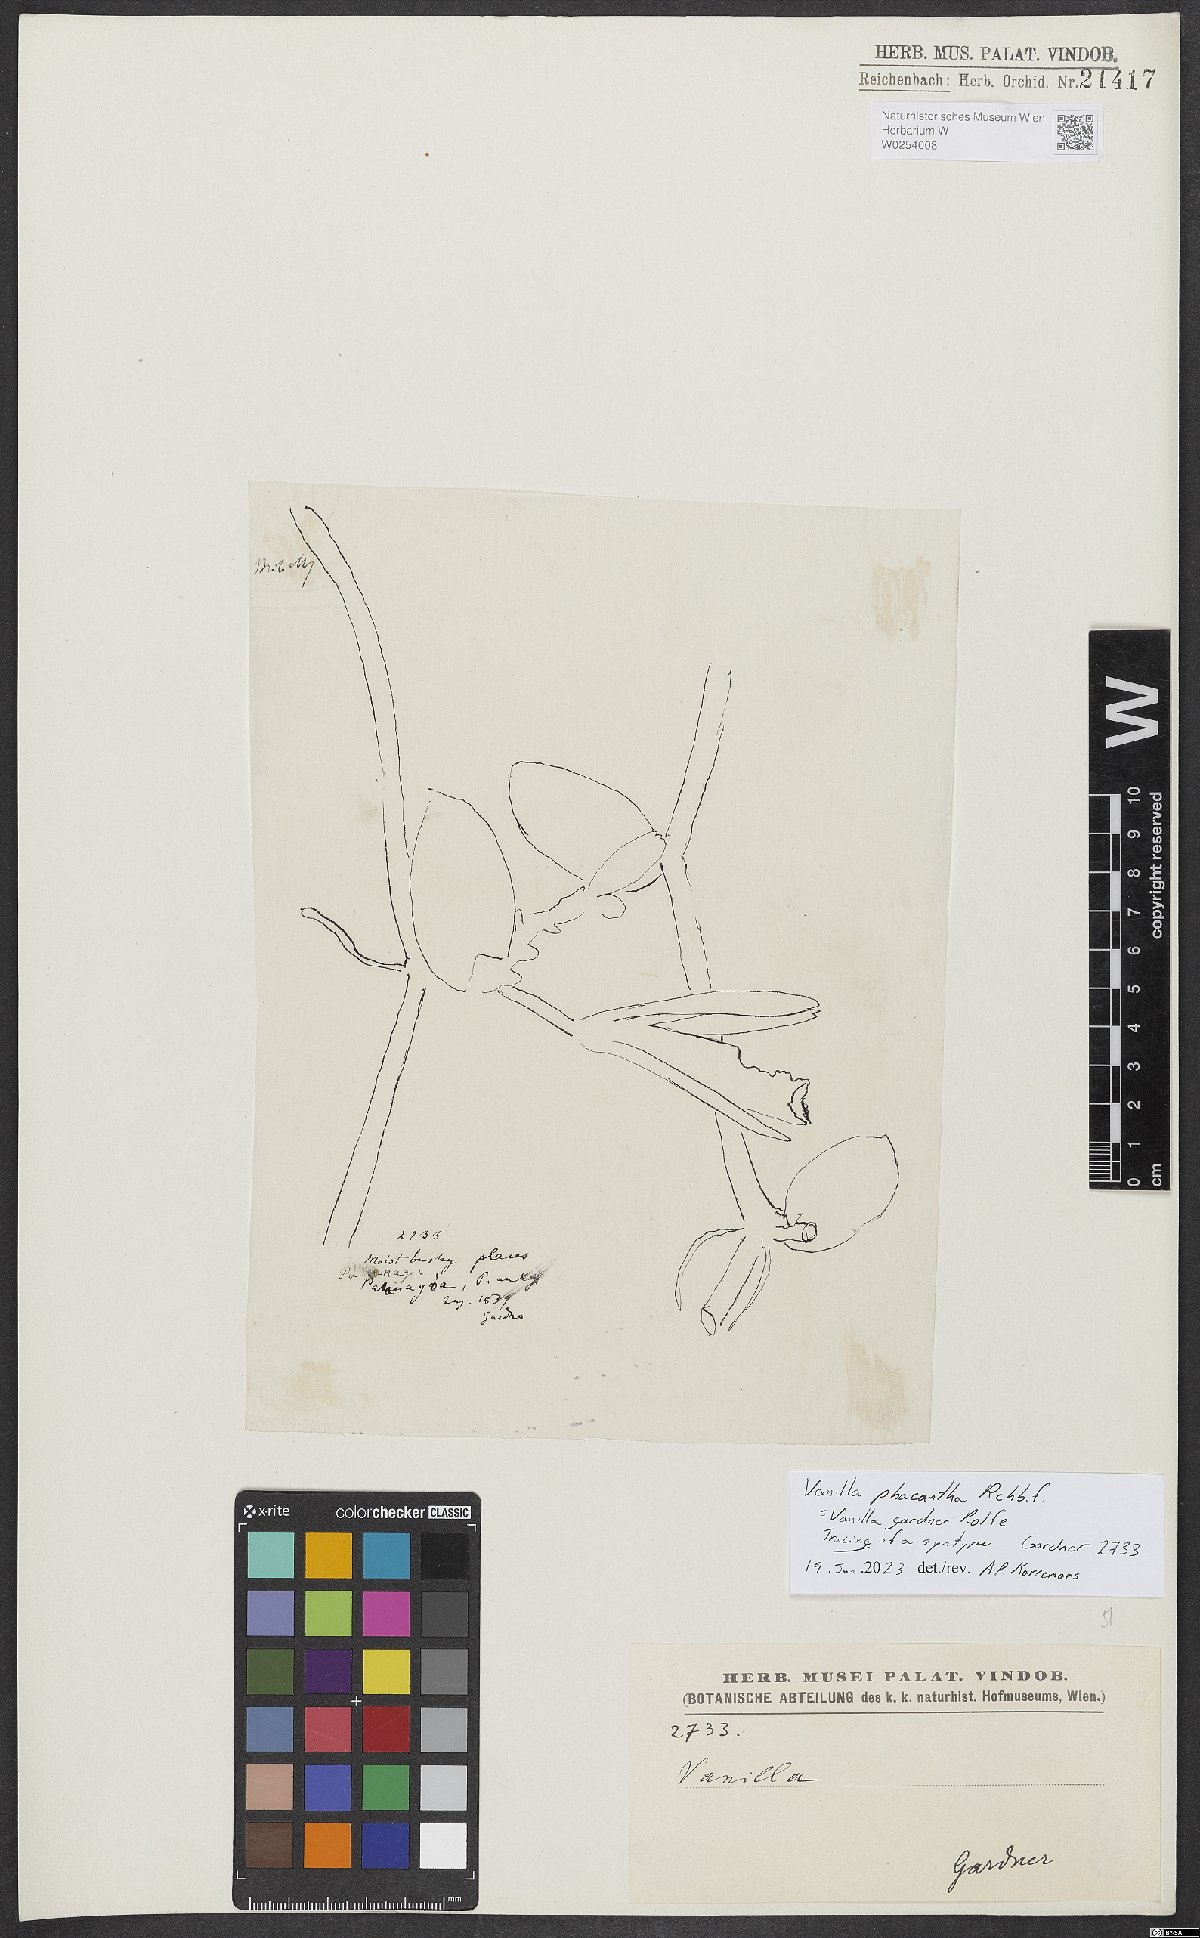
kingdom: Plantae
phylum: Tracheophyta
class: Liliopsida
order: Asparagales
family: Orchidaceae
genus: Vanilla
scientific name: Vanilla phaeantha
